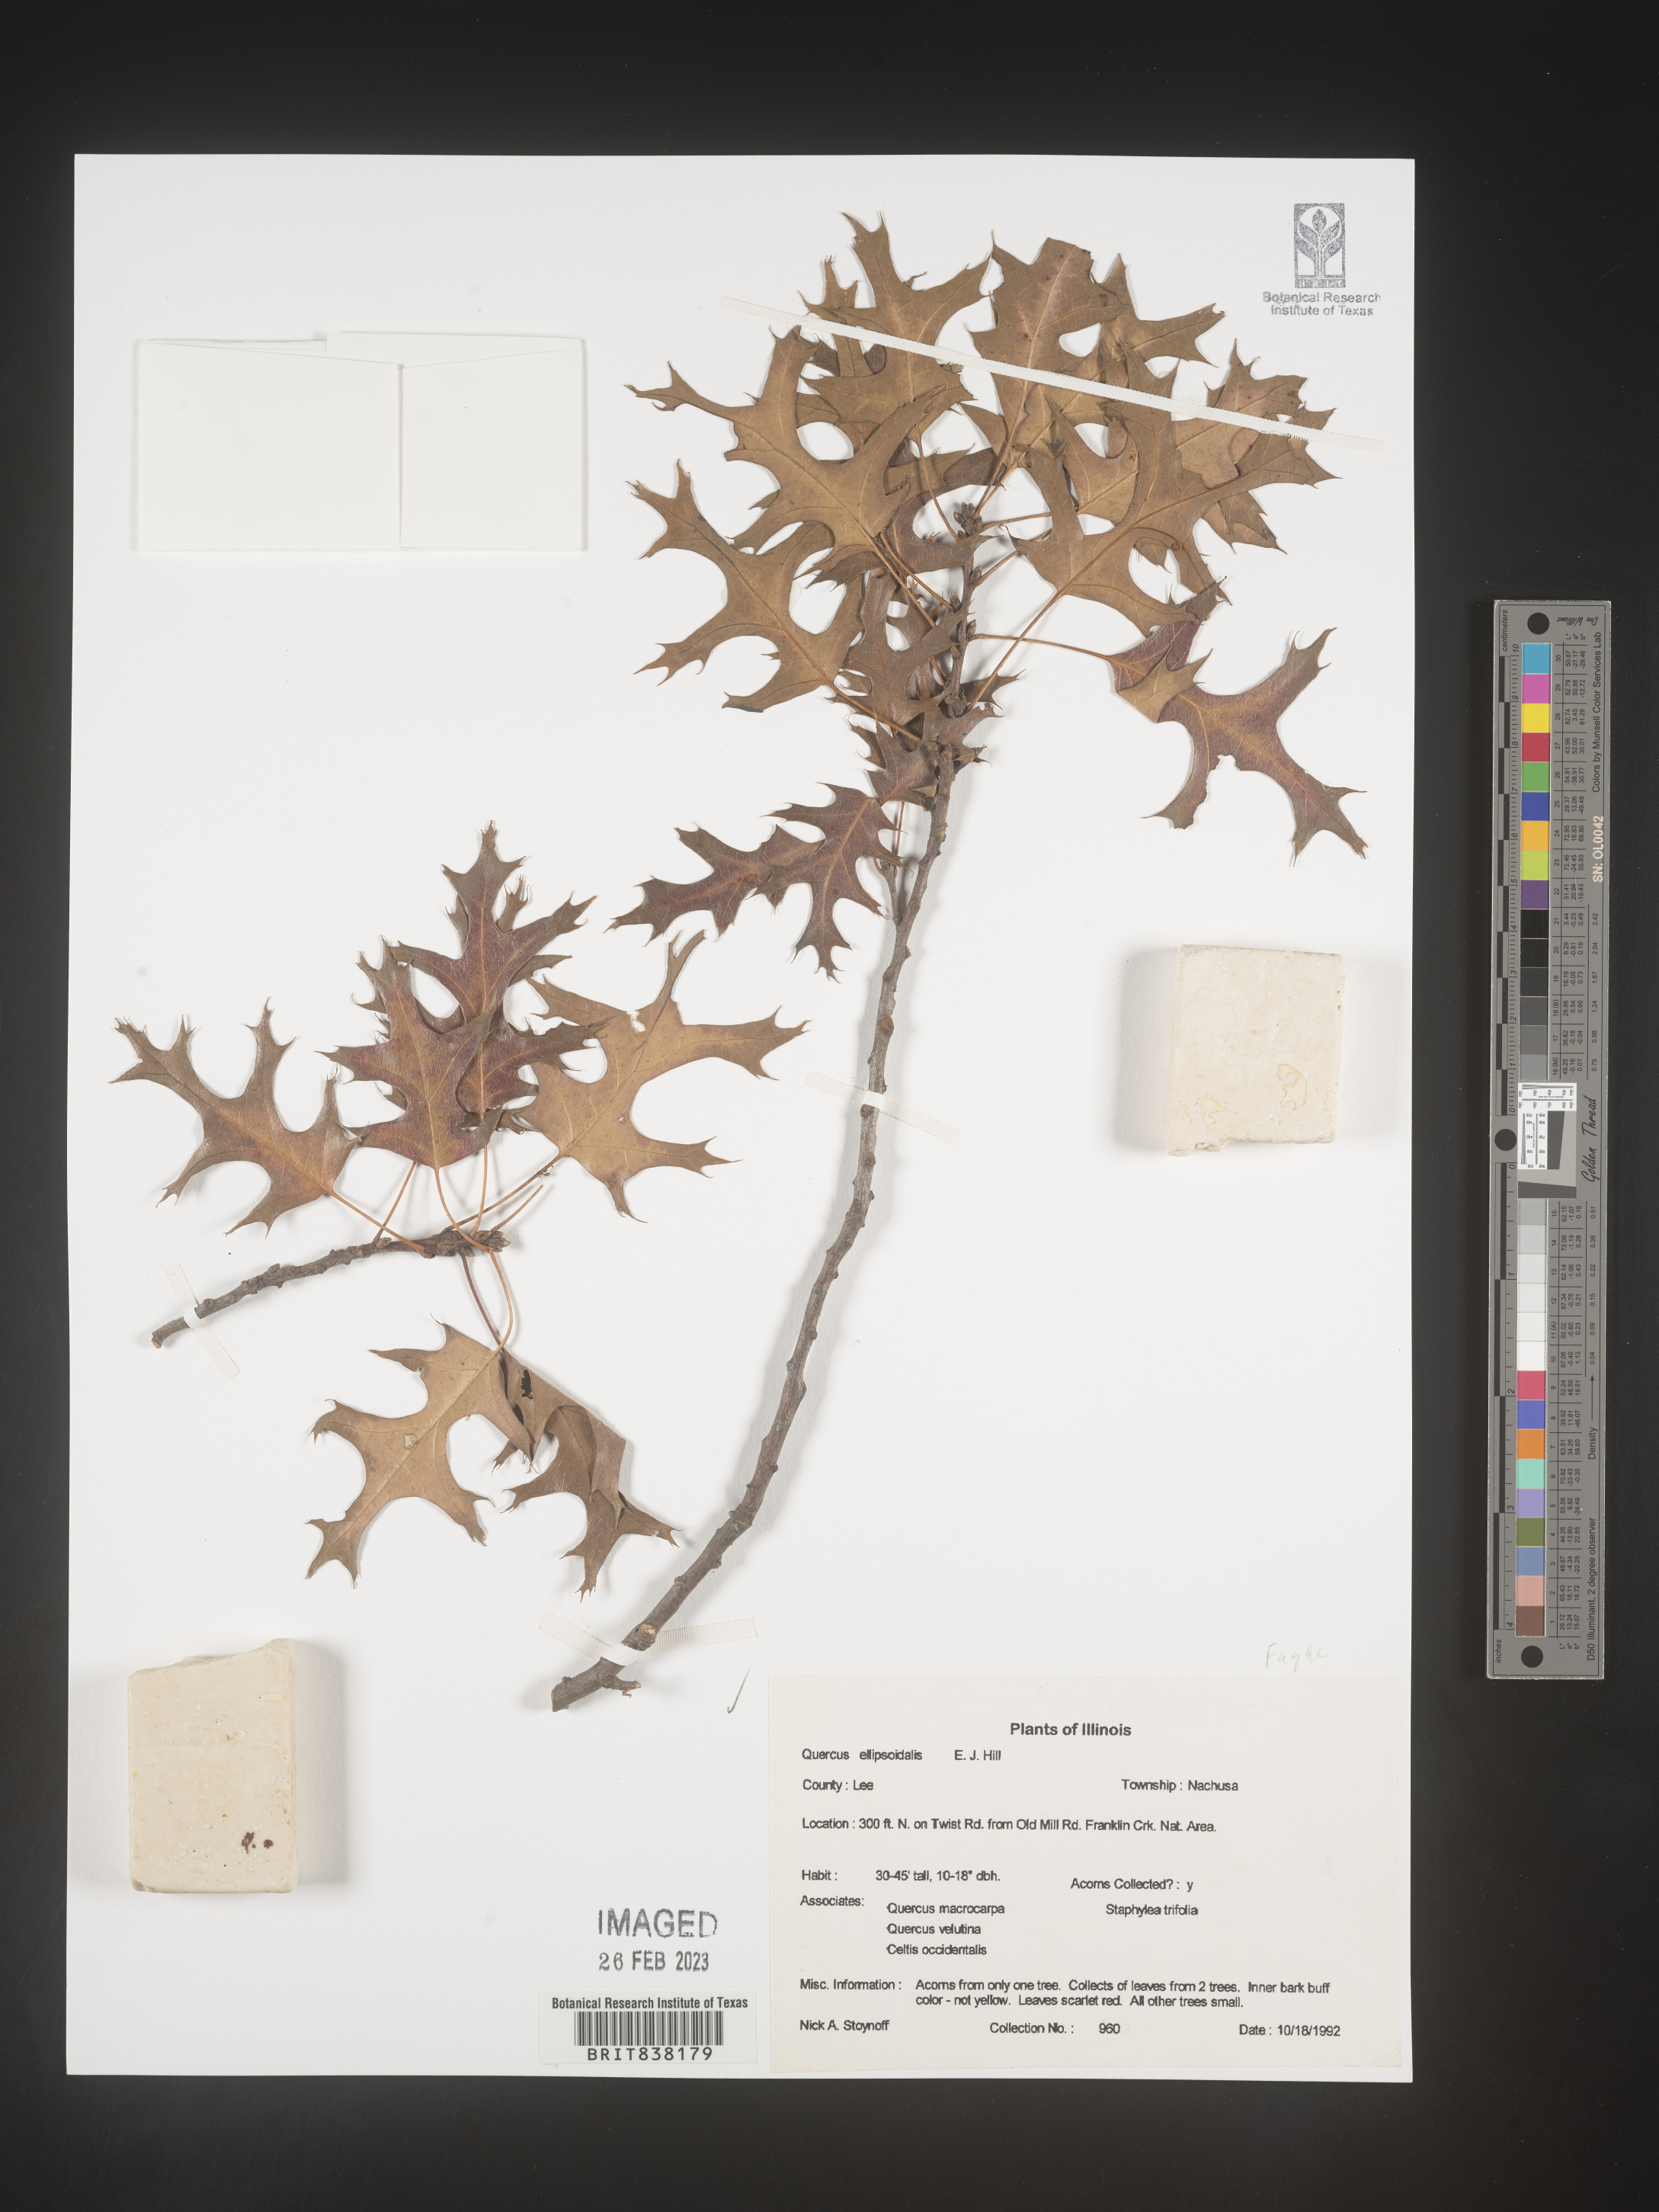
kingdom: Plantae
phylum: Tracheophyta
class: Magnoliopsida
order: Fagales
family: Fagaceae
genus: Quercus
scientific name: Quercus ellipsoidalis
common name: Hill's oak
